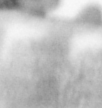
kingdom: Animalia
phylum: Annelida
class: Polychaeta
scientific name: Polychaeta
